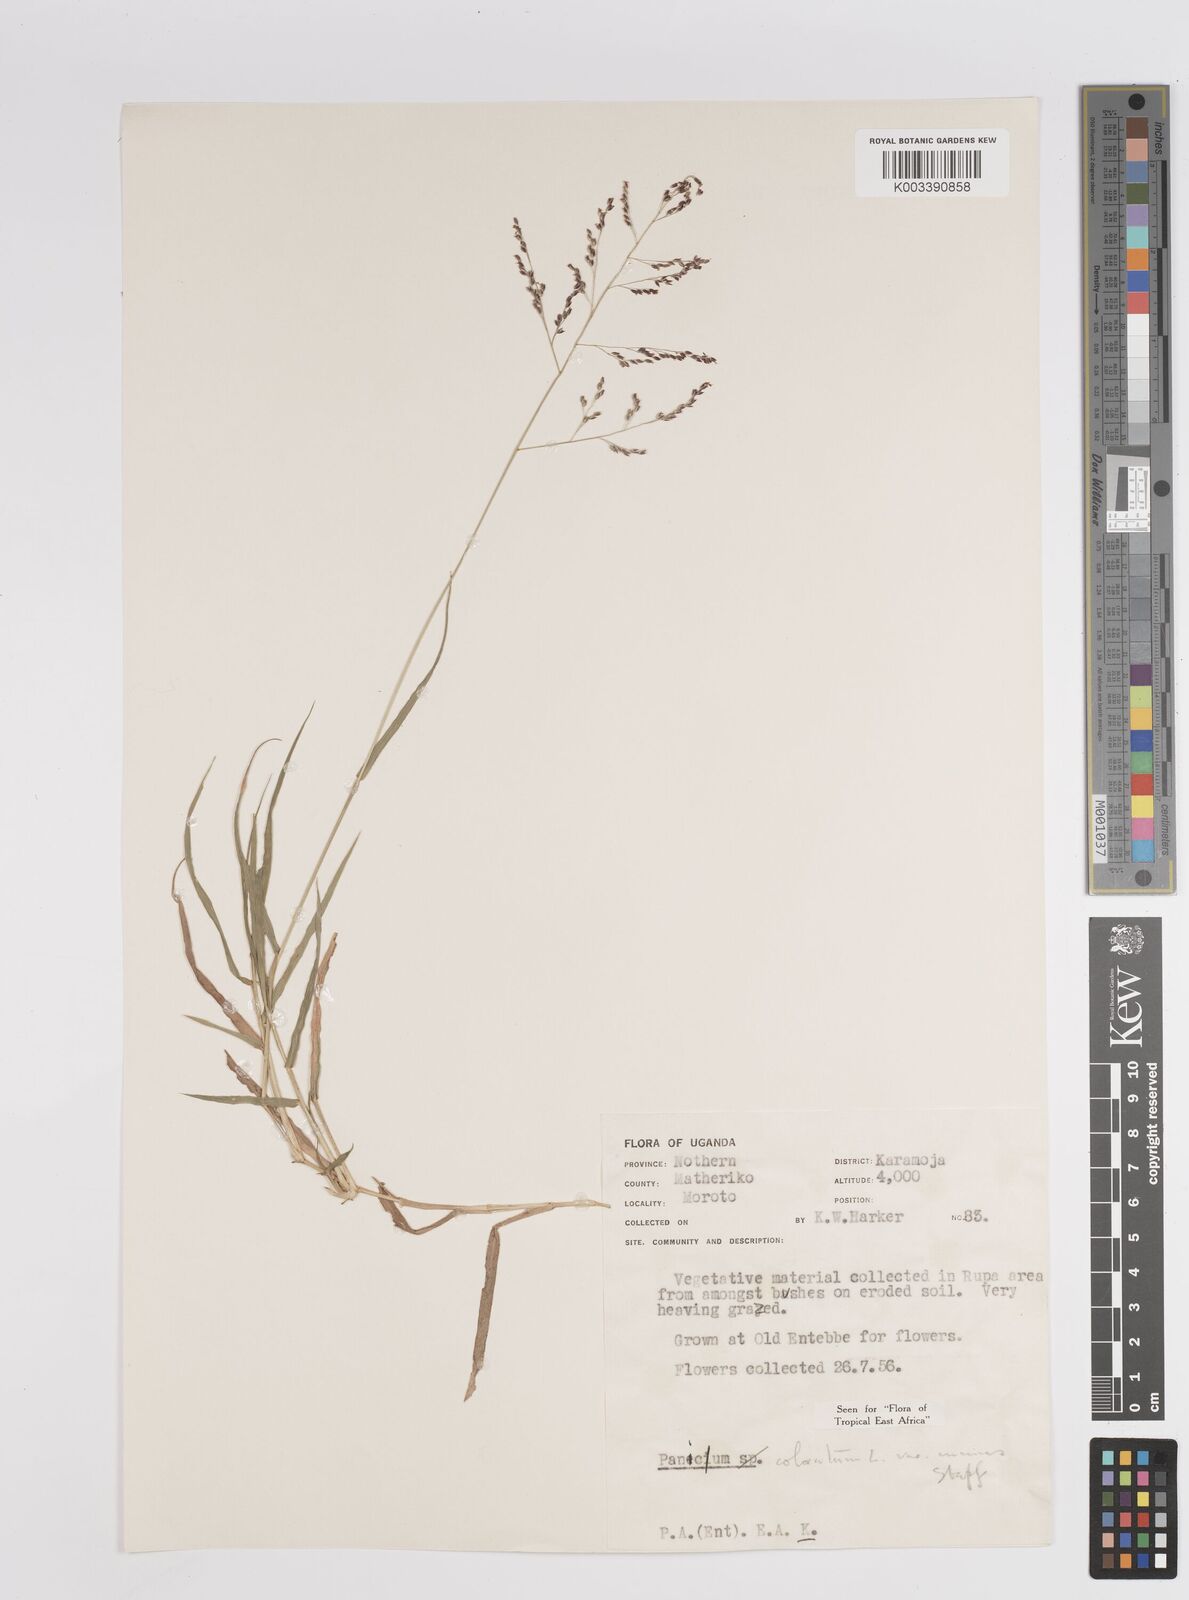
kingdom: Plantae
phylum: Tracheophyta
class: Liliopsida
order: Poales
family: Poaceae
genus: Panicum
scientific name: Panicum coloratum
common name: Kleingrass
